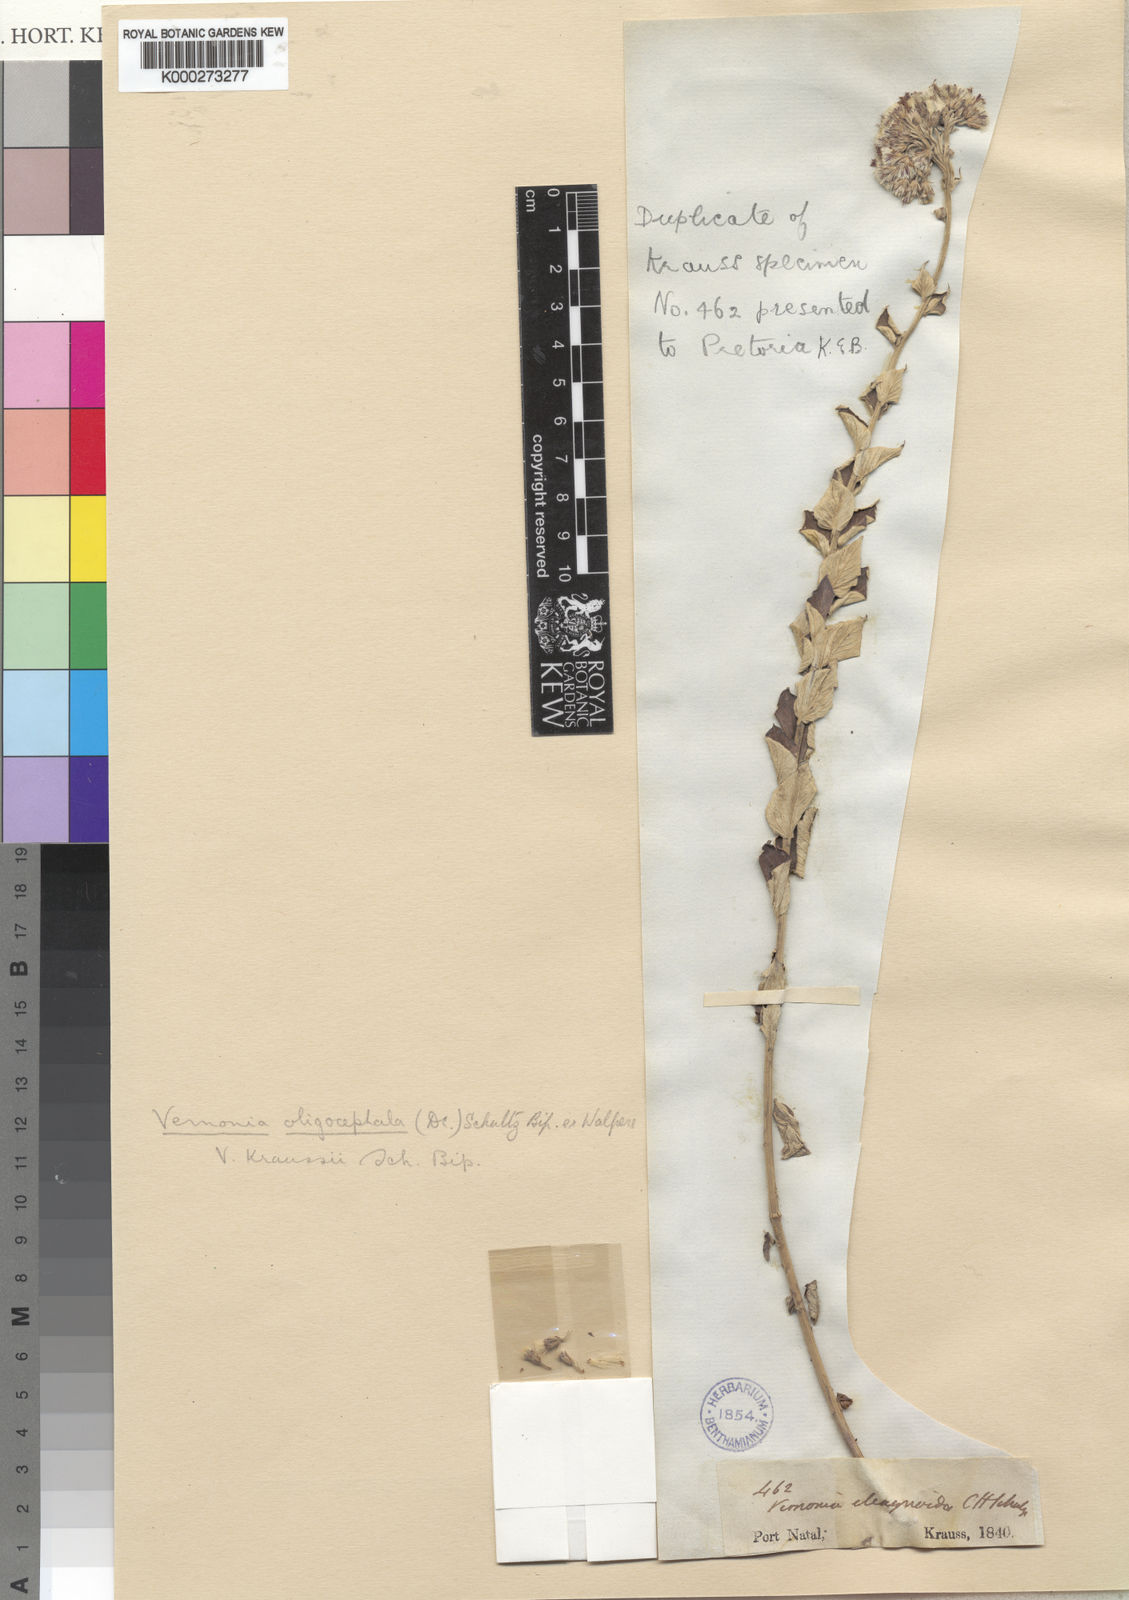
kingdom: Plantae
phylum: Tracheophyta
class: Magnoliopsida
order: Asterales
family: Asteraceae
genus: Vernonia
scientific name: Vernonia
